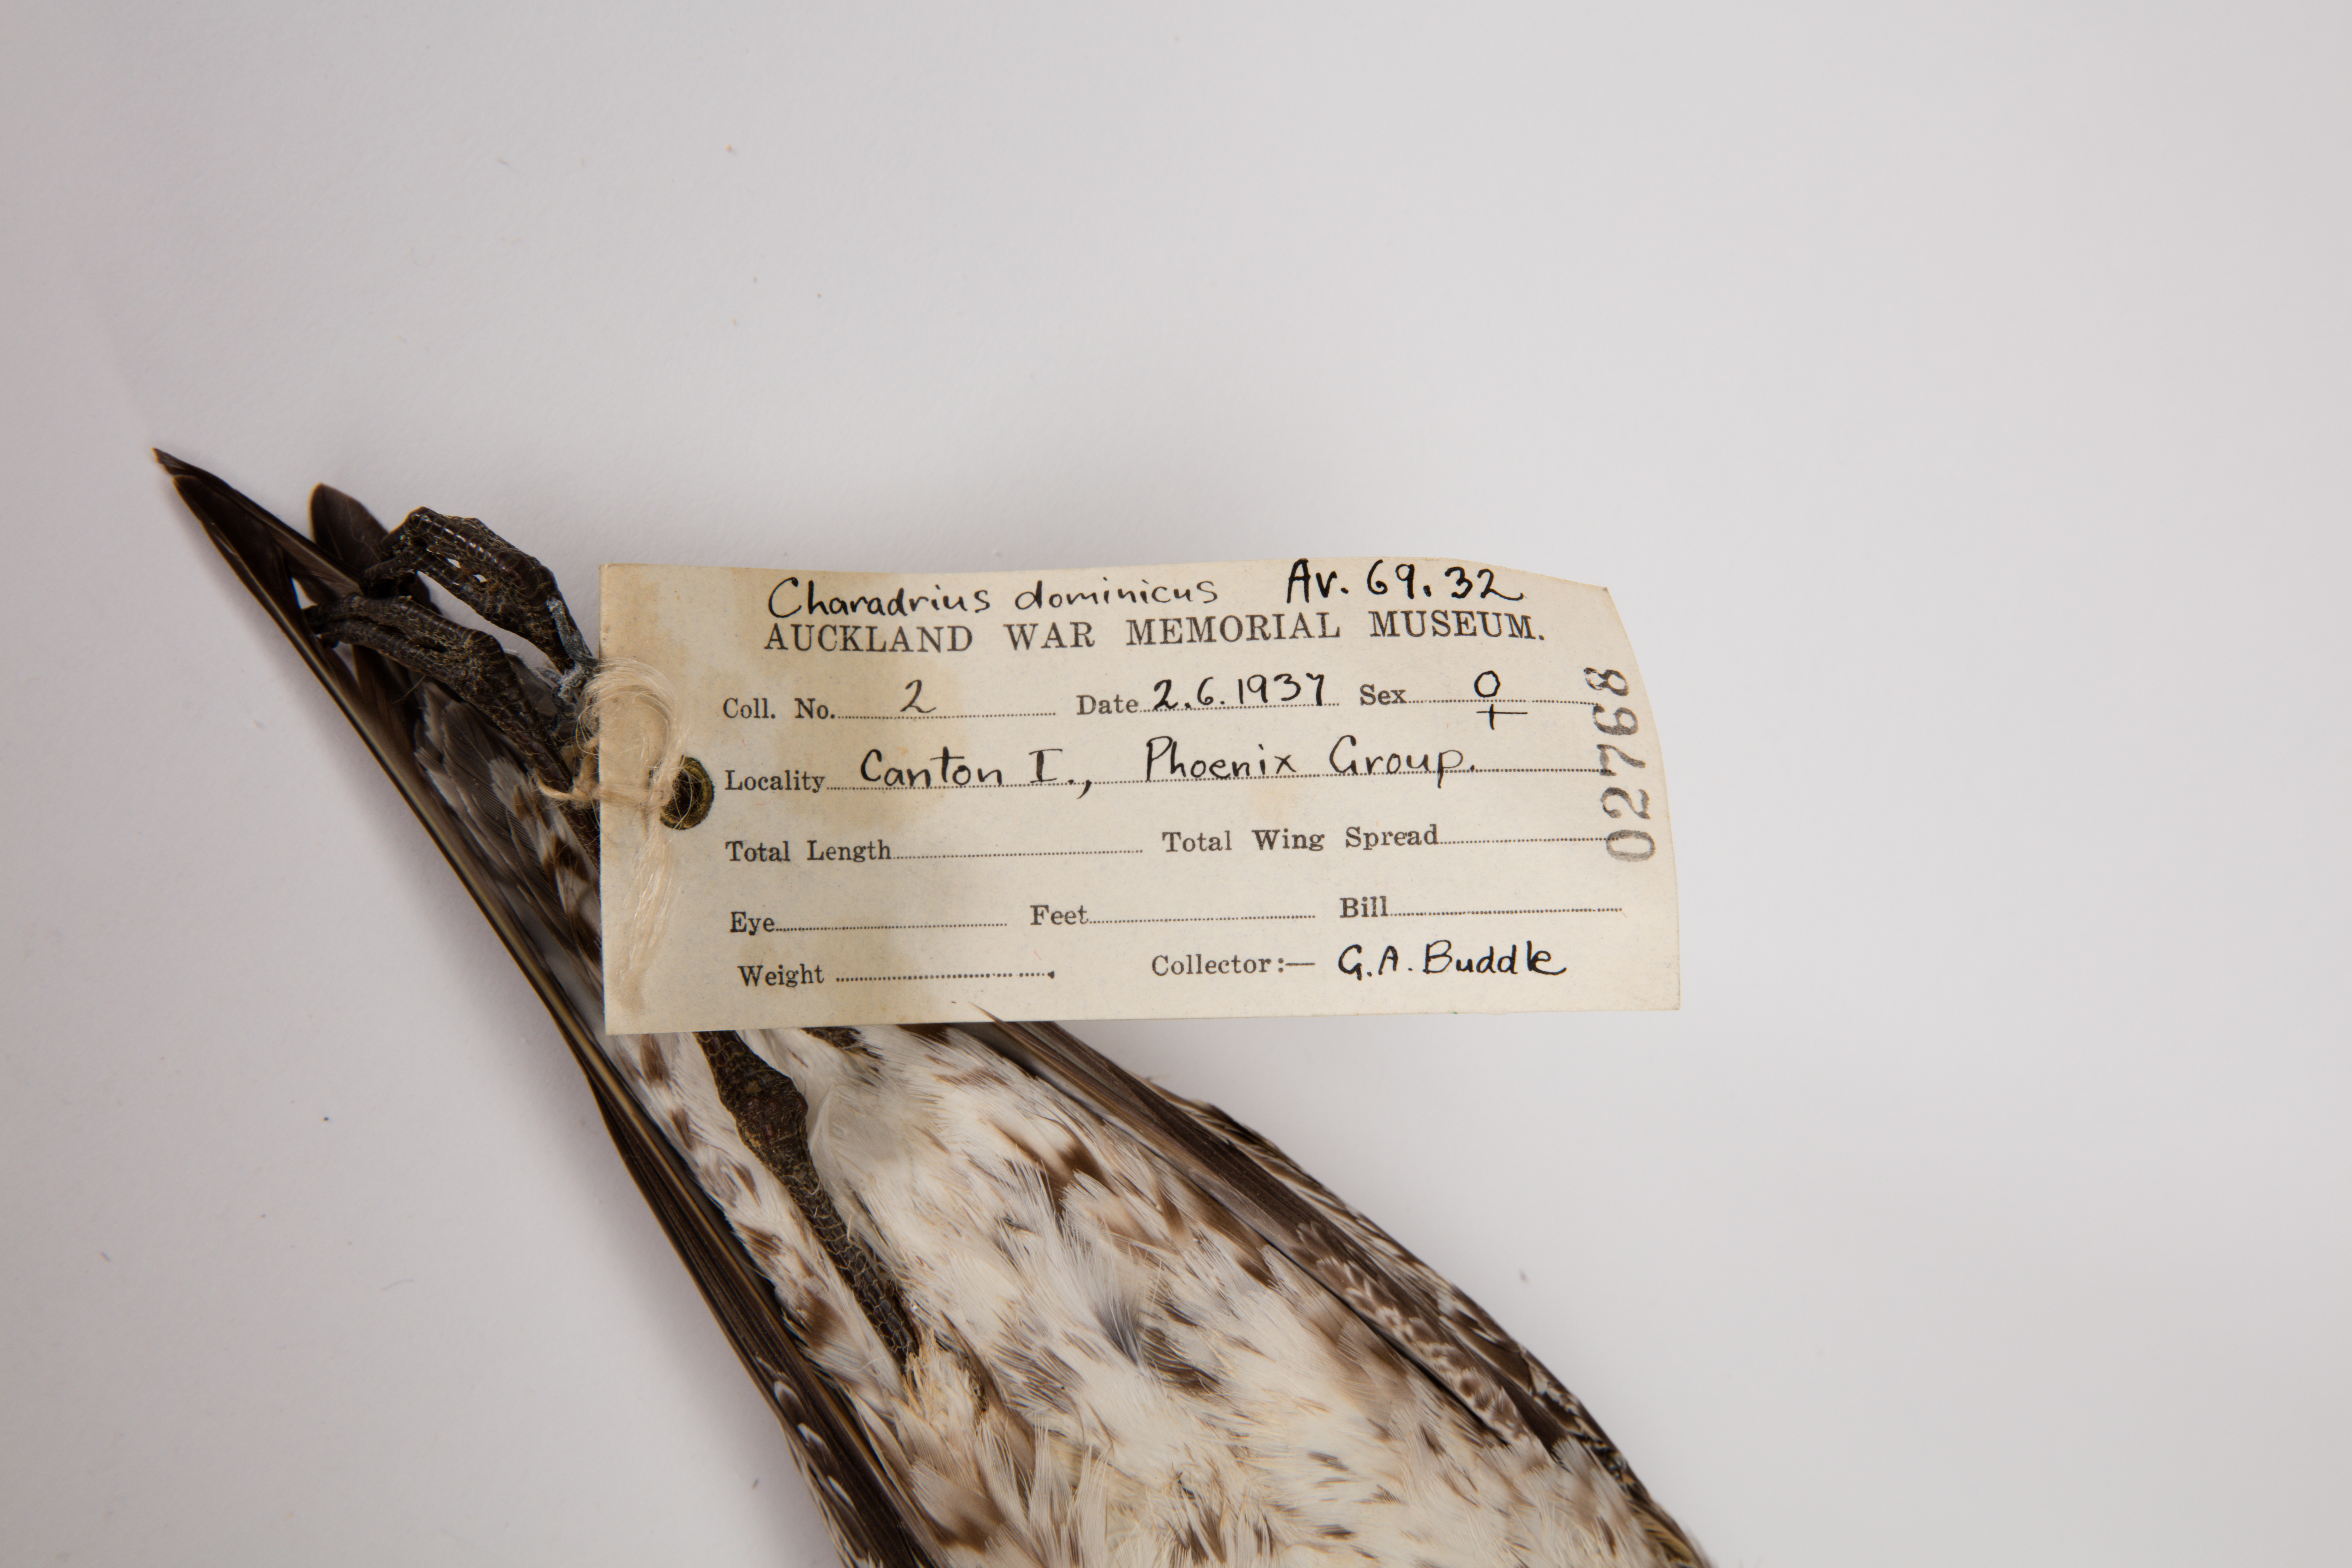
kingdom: Animalia
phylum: Chordata
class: Aves
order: Charadriiformes
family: Charadriidae
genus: Pluvialis
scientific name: Pluvialis fulva
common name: Pacific golden plover
